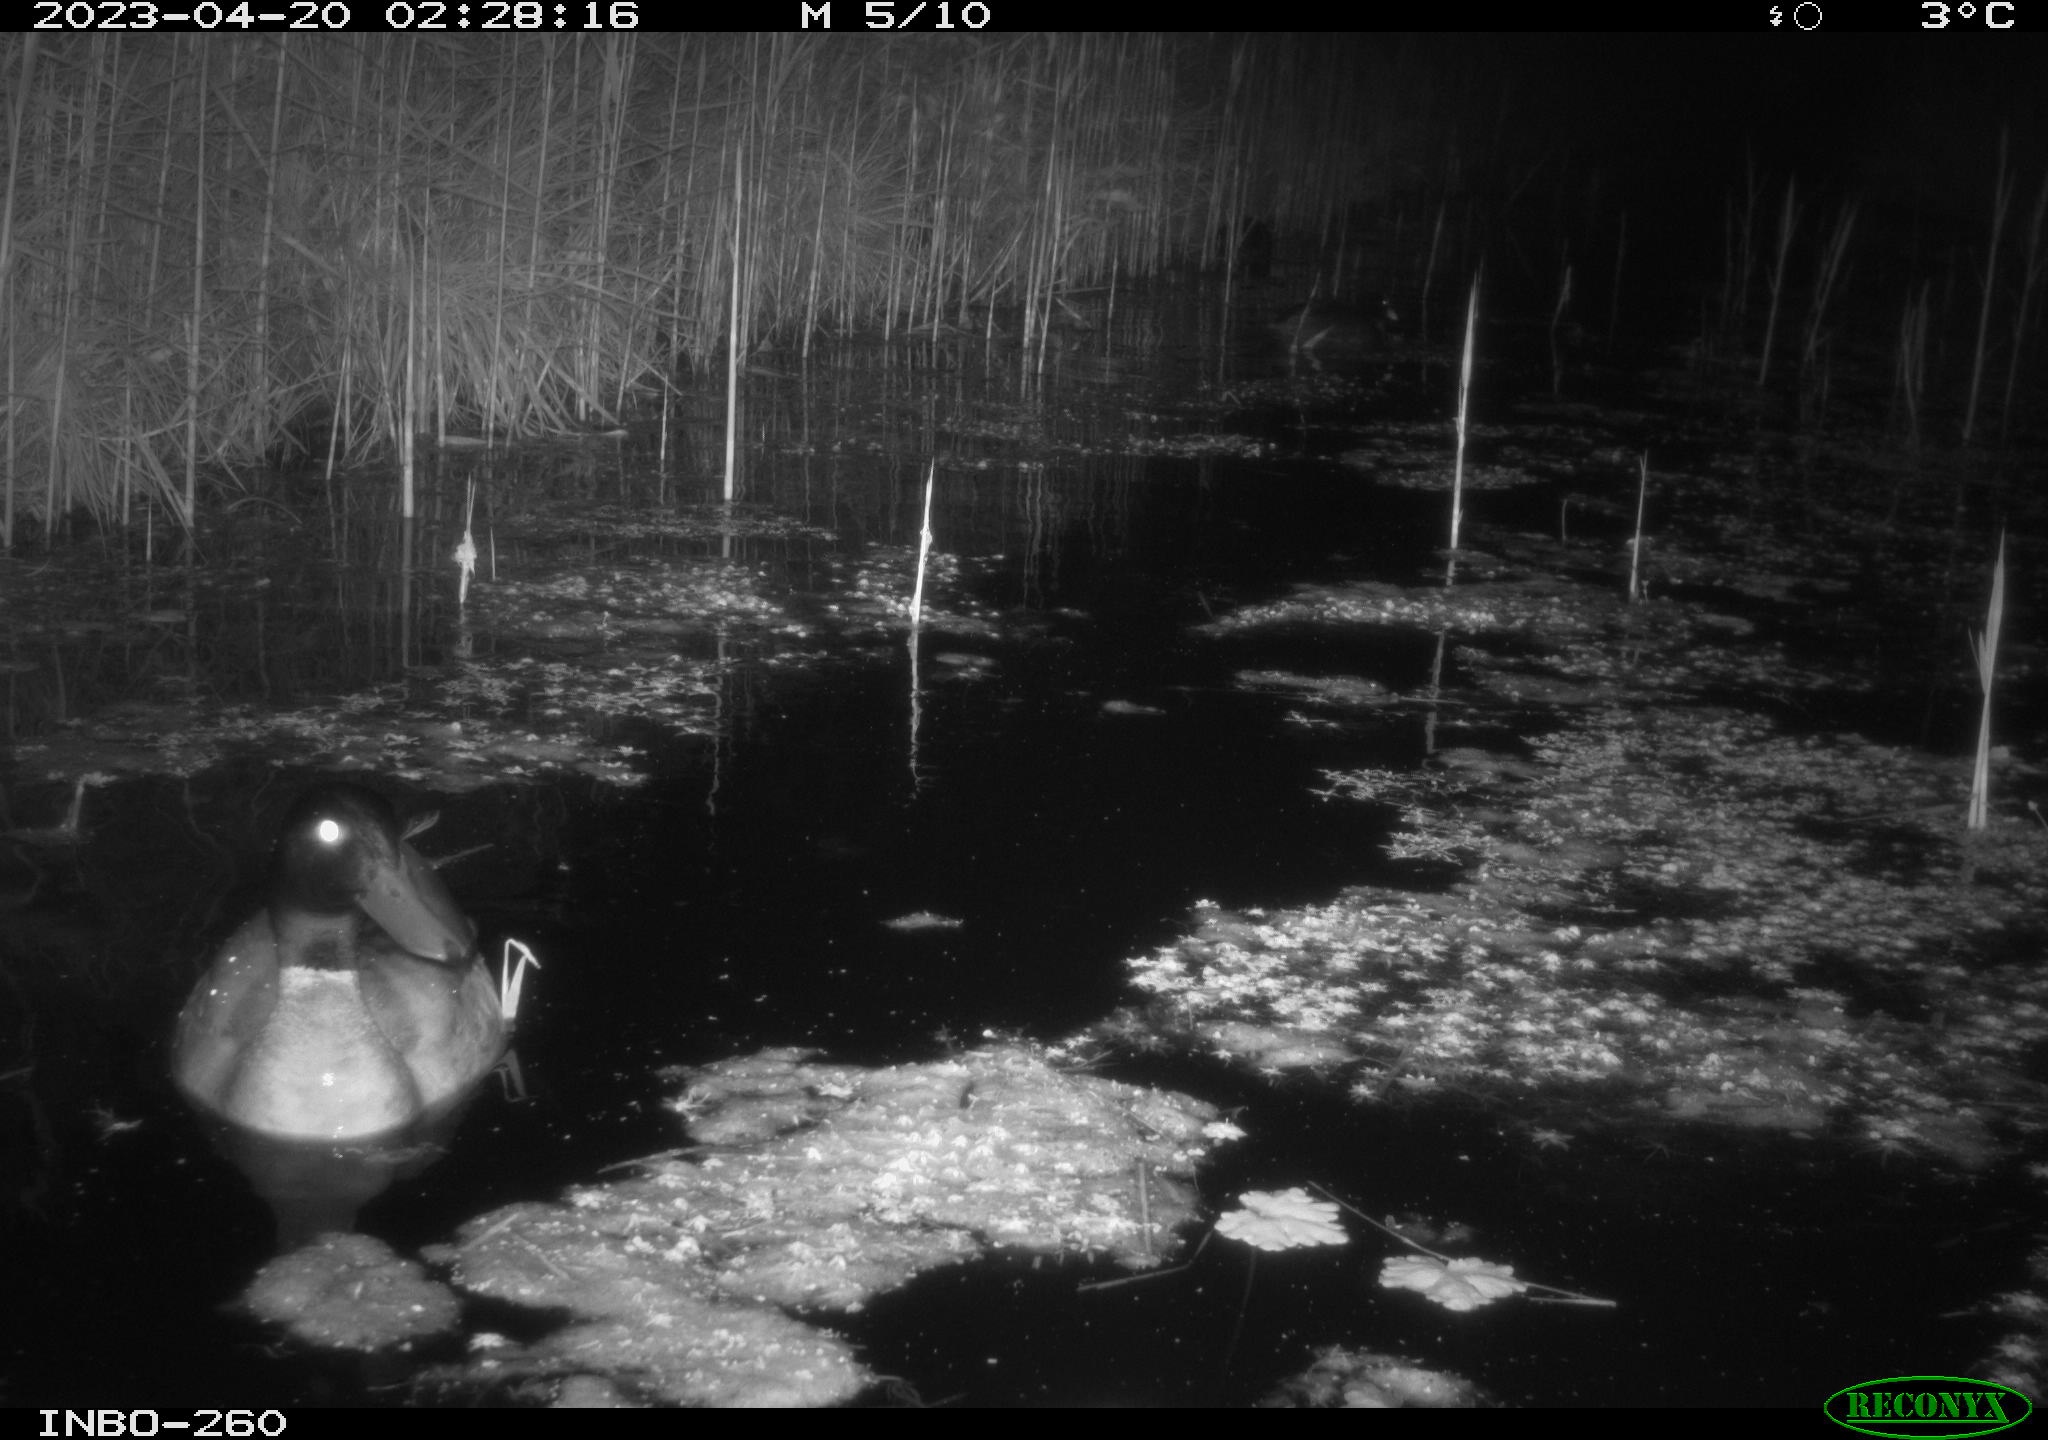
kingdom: Animalia
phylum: Chordata
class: Aves
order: Anseriformes
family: Anatidae
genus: Anas
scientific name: Anas
